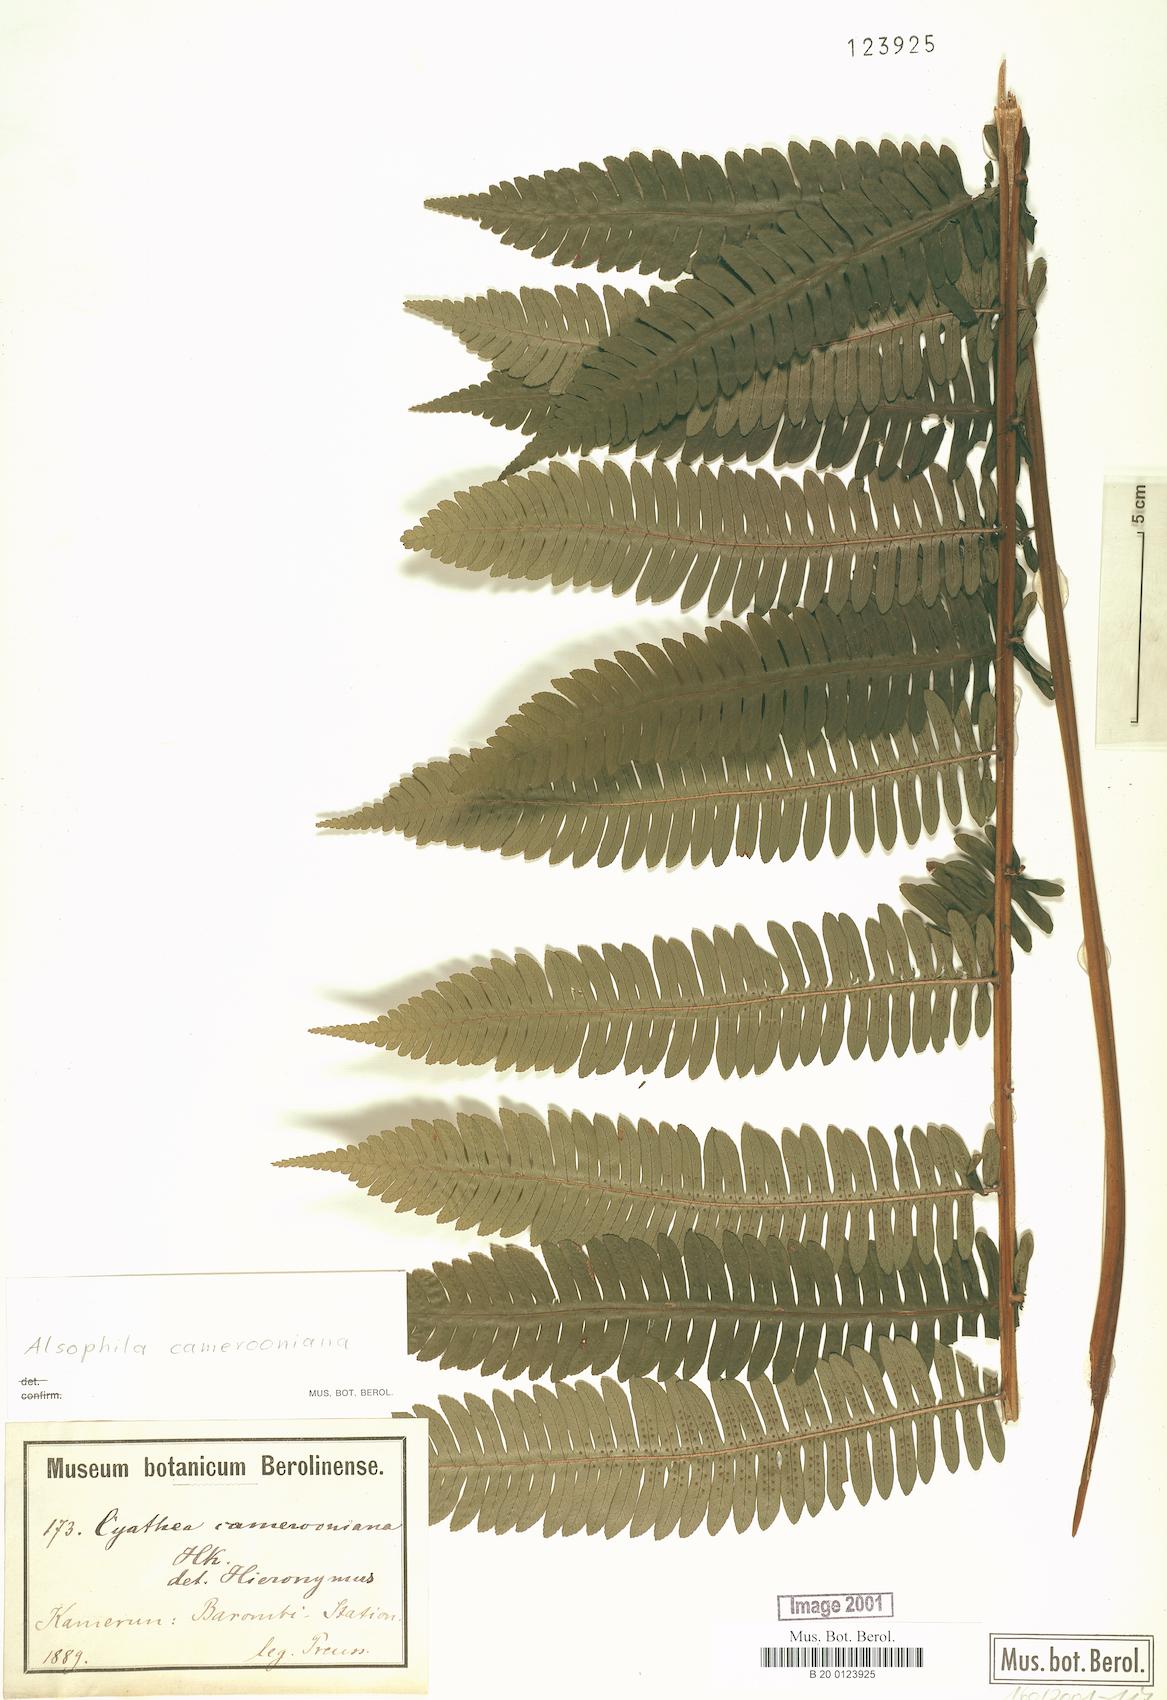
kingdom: Plantae
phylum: Tracheophyta
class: Polypodiopsida
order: Cyatheales
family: Cyatheaceae
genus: Alsophila
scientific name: Alsophila camerooniana
